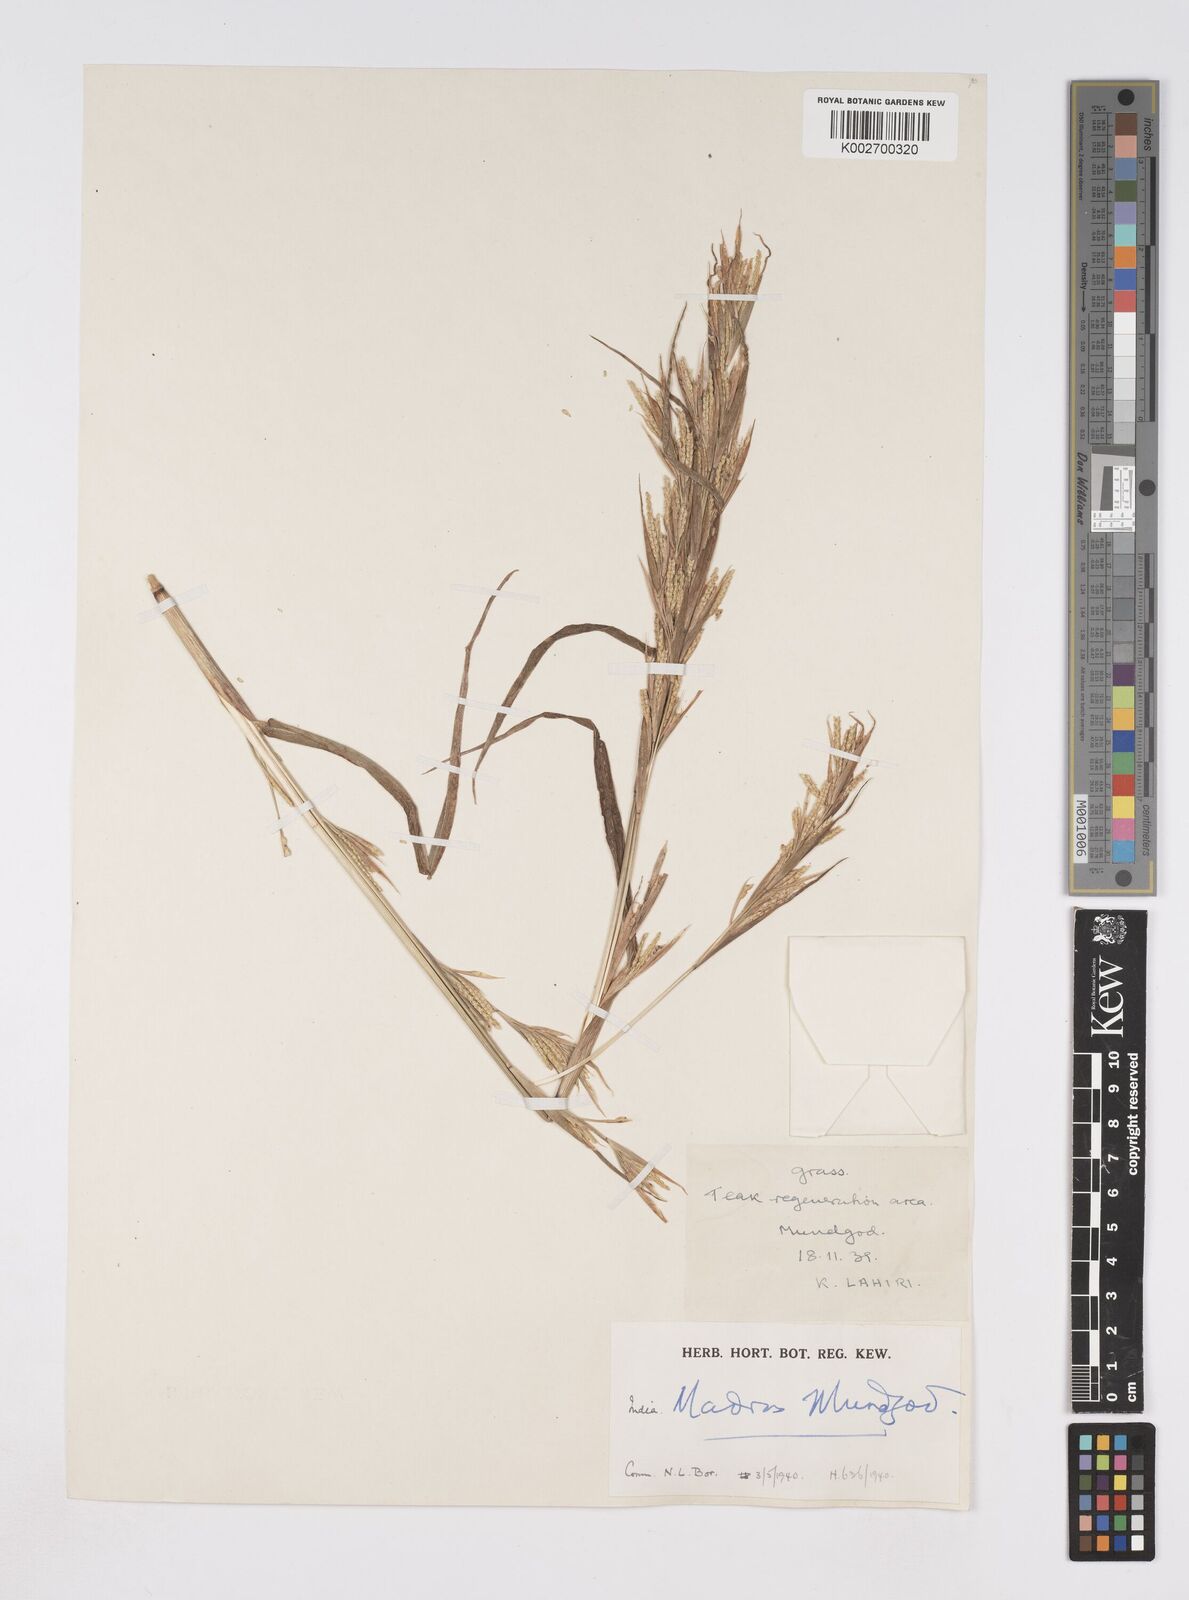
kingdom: Plantae
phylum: Tracheophyta
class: Liliopsida
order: Poales
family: Poaceae
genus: Rottboellia
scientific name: Rottboellia clarkei
